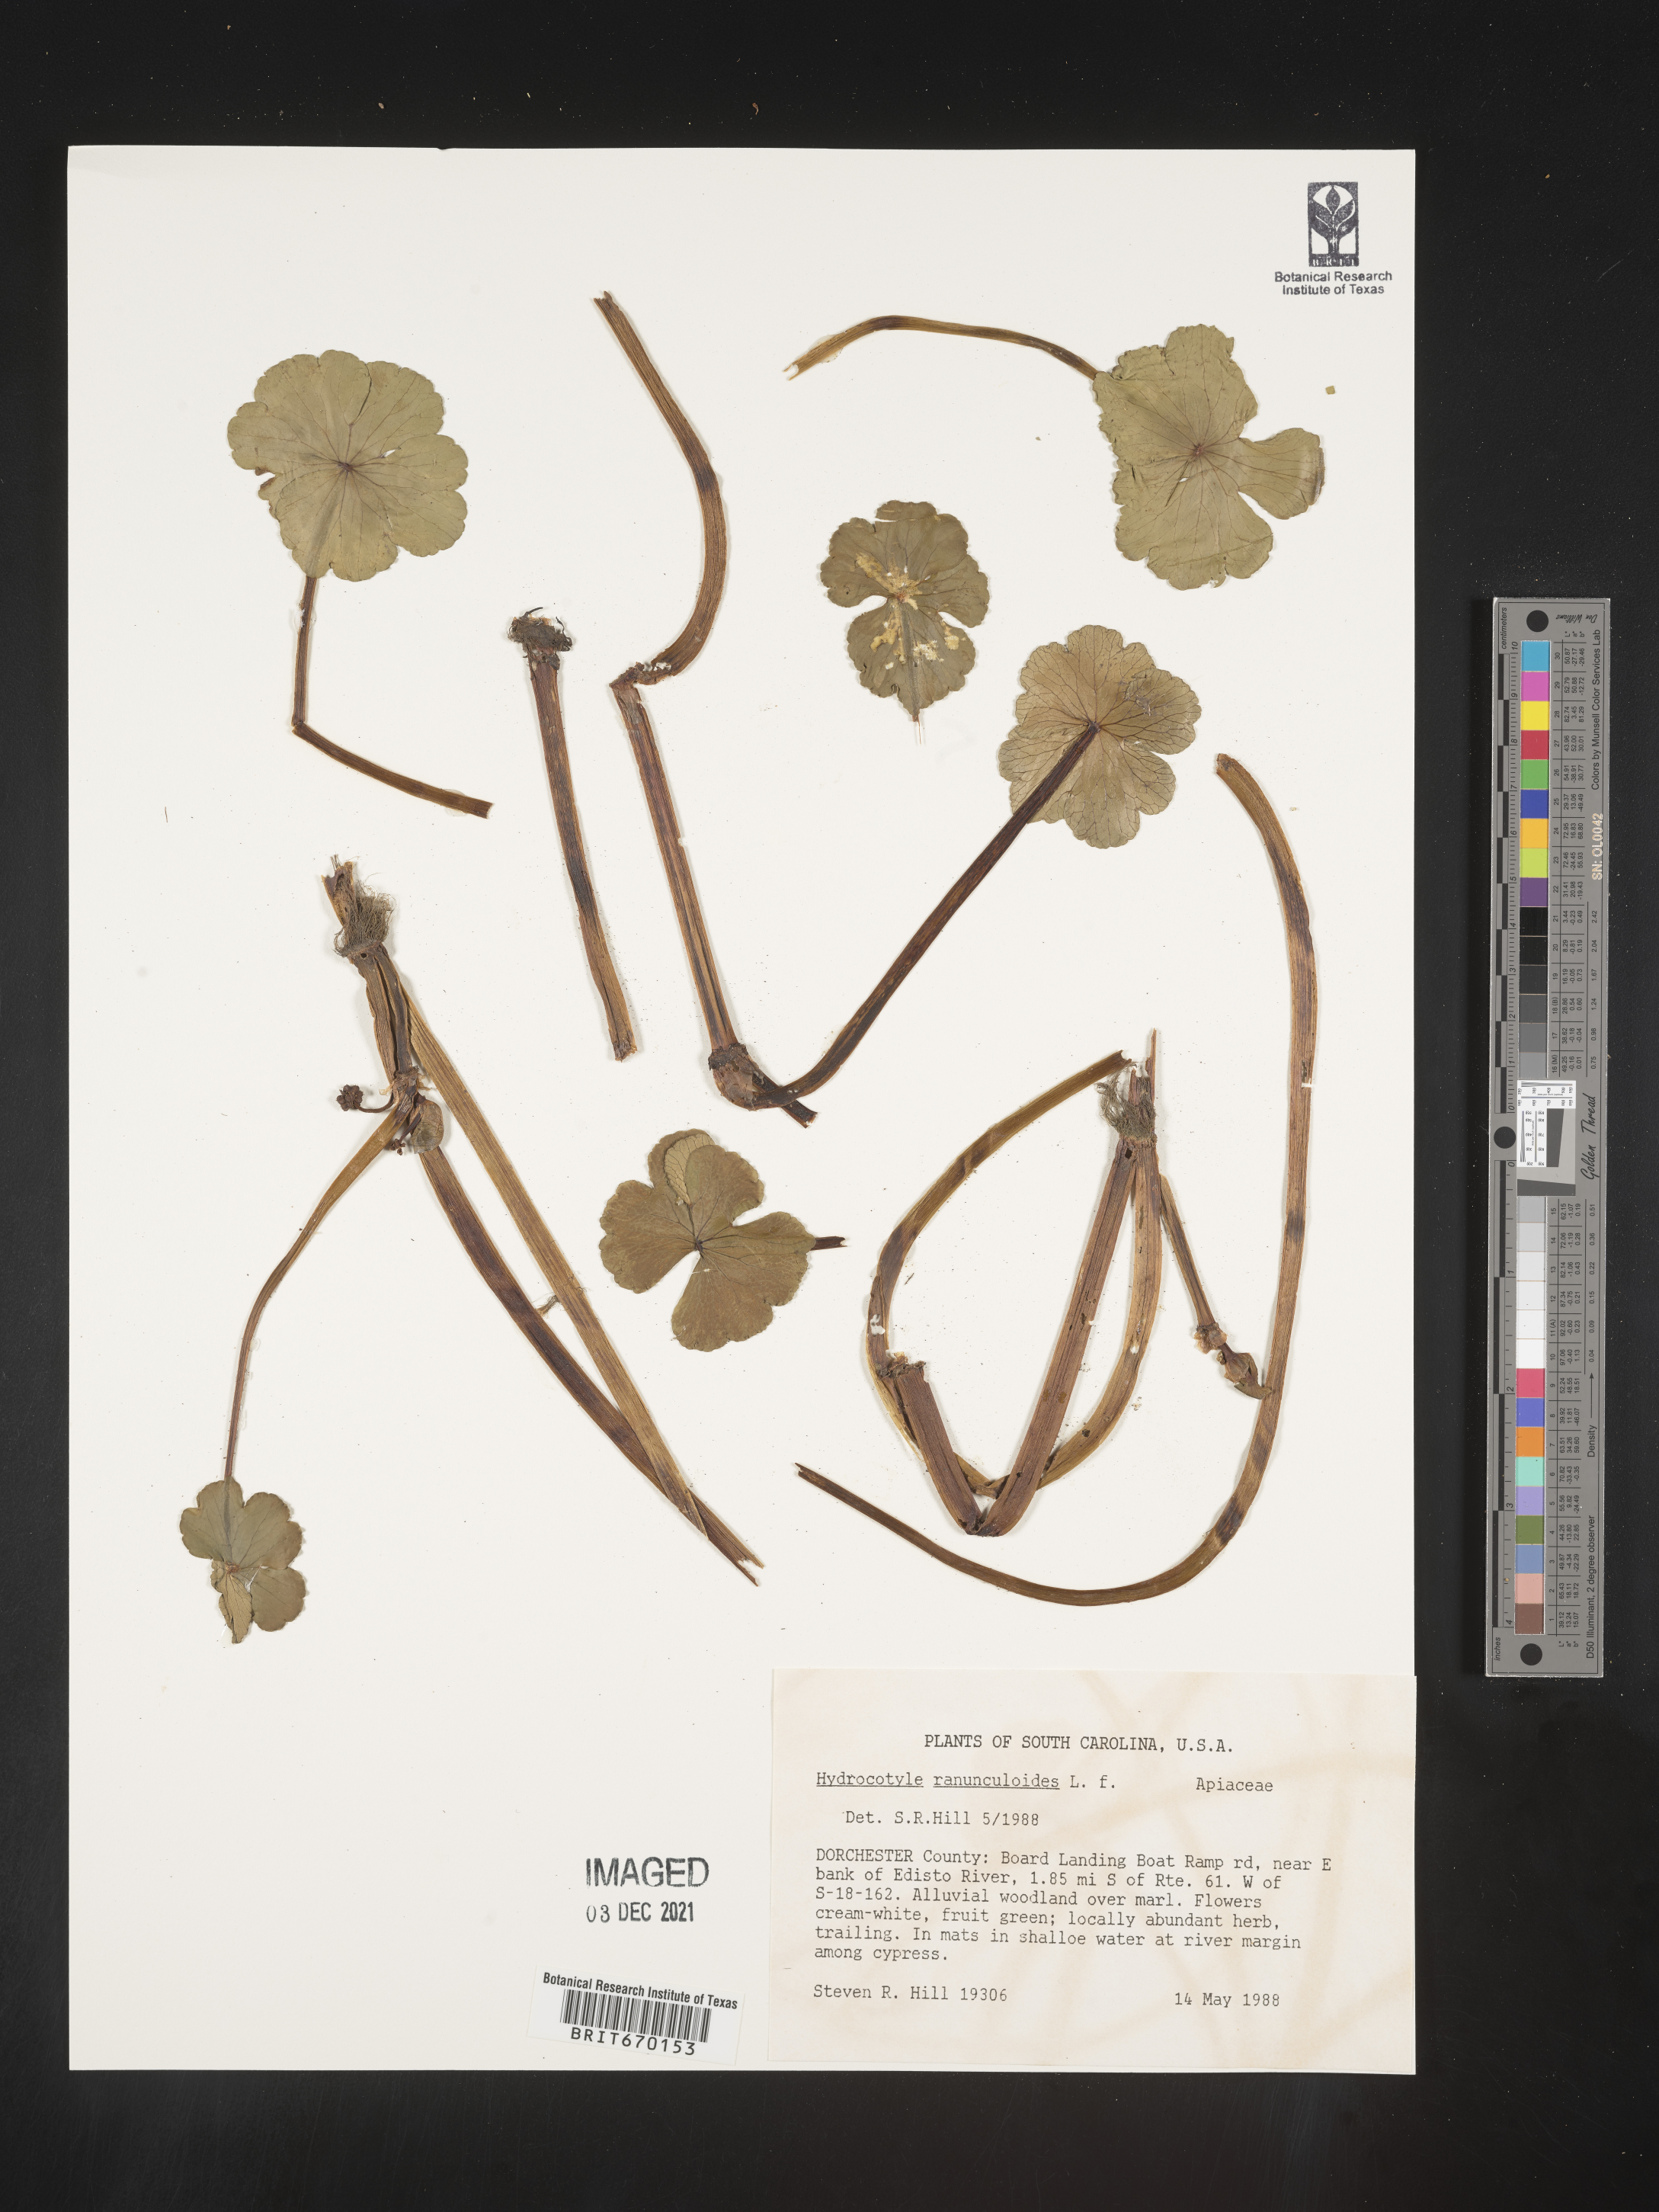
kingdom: Plantae
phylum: Tracheophyta
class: Magnoliopsida
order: Apiales
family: Araliaceae
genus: Hydrocotyle
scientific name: Hydrocotyle ranunculoides
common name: Floating pennywort
